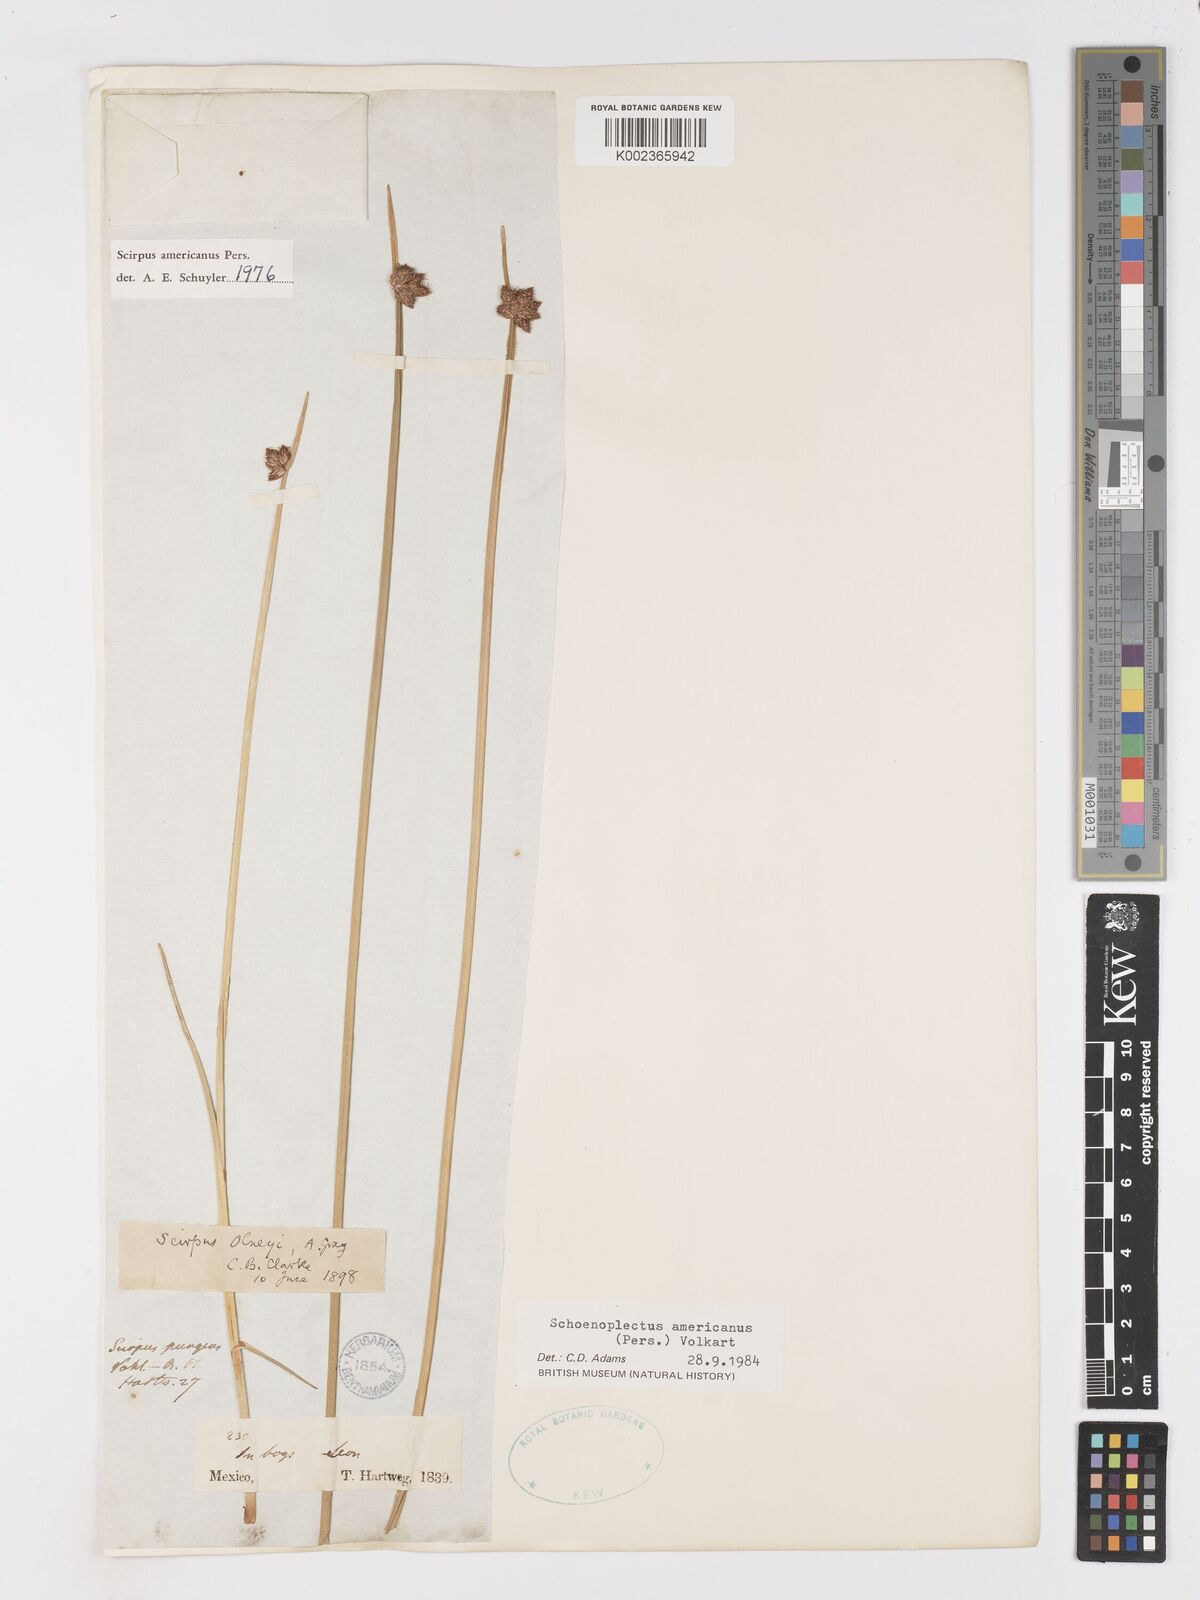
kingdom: Plantae
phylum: Tracheophyta
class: Liliopsida
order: Poales
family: Cyperaceae
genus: Schoenoplectus
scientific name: Schoenoplectus americanus
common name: American three-square bulrush
